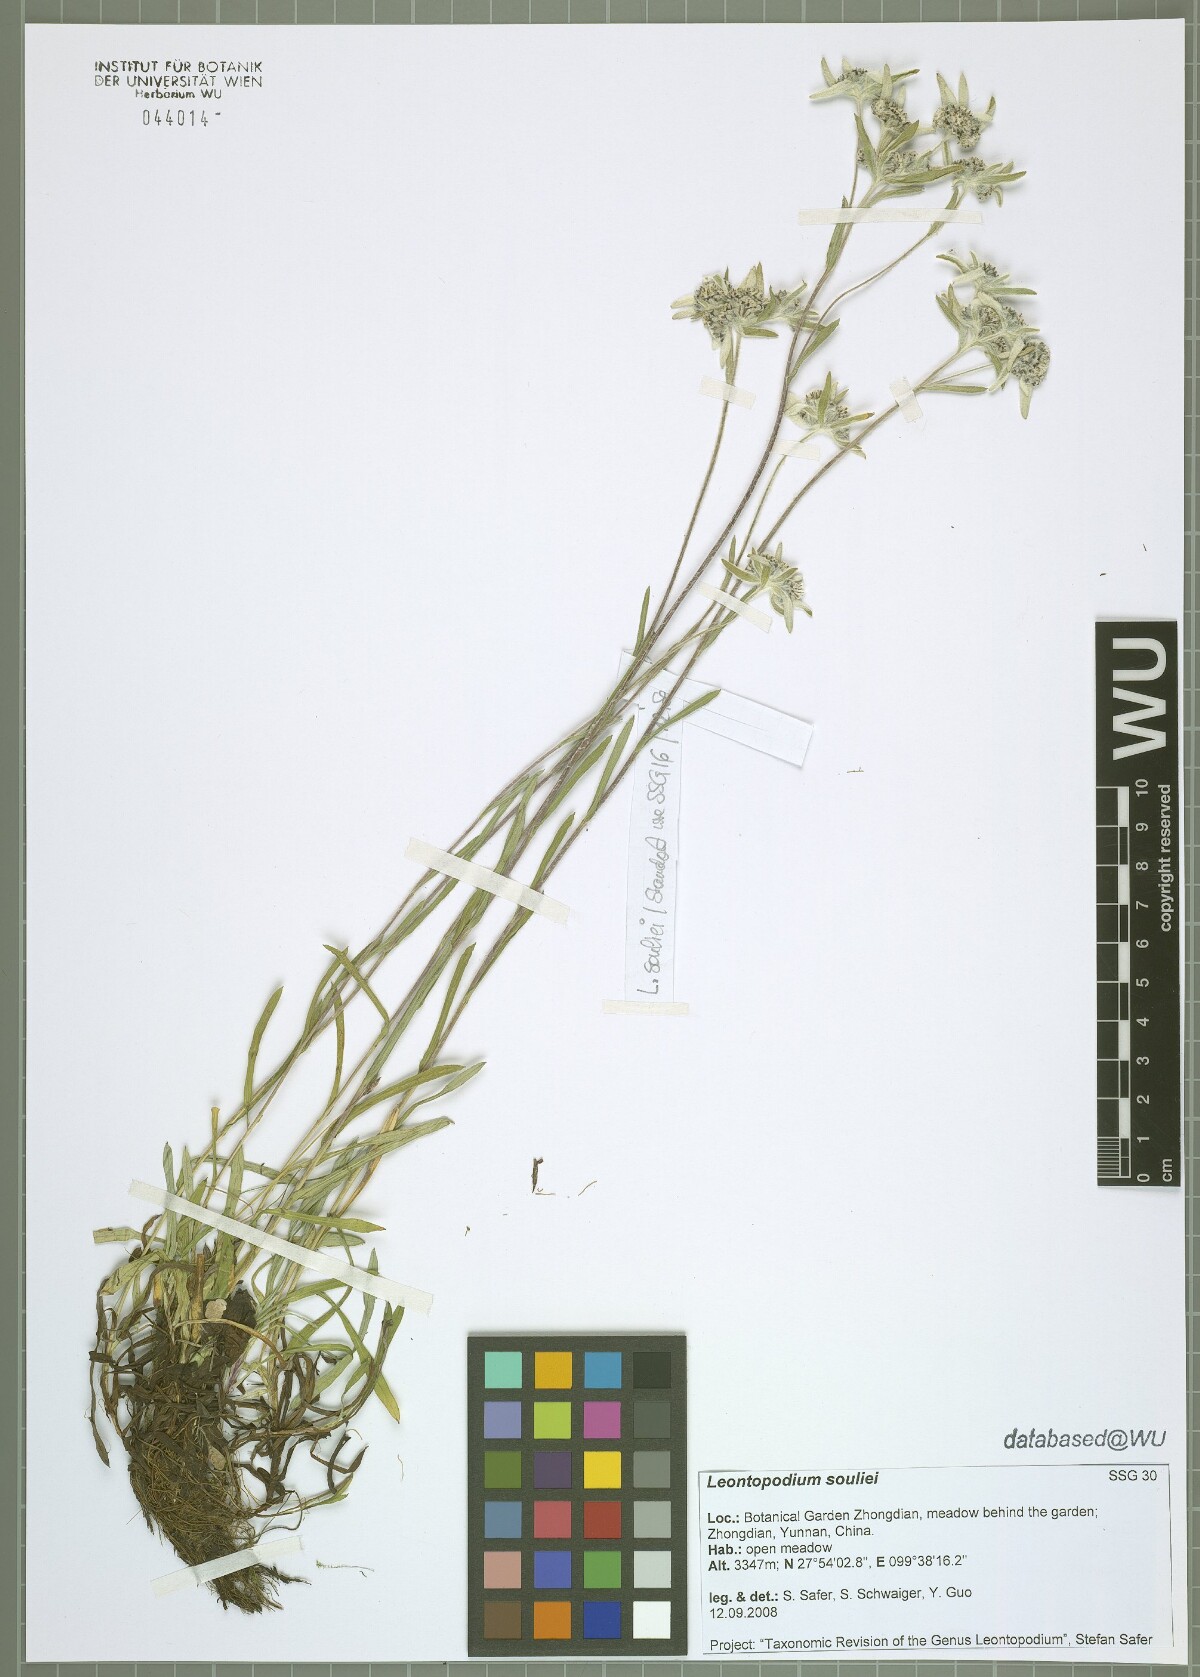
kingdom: Plantae
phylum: Tracheophyta
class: Magnoliopsida
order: Asterales
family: Asteraceae
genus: Leontopodium
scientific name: Leontopodium souliei
